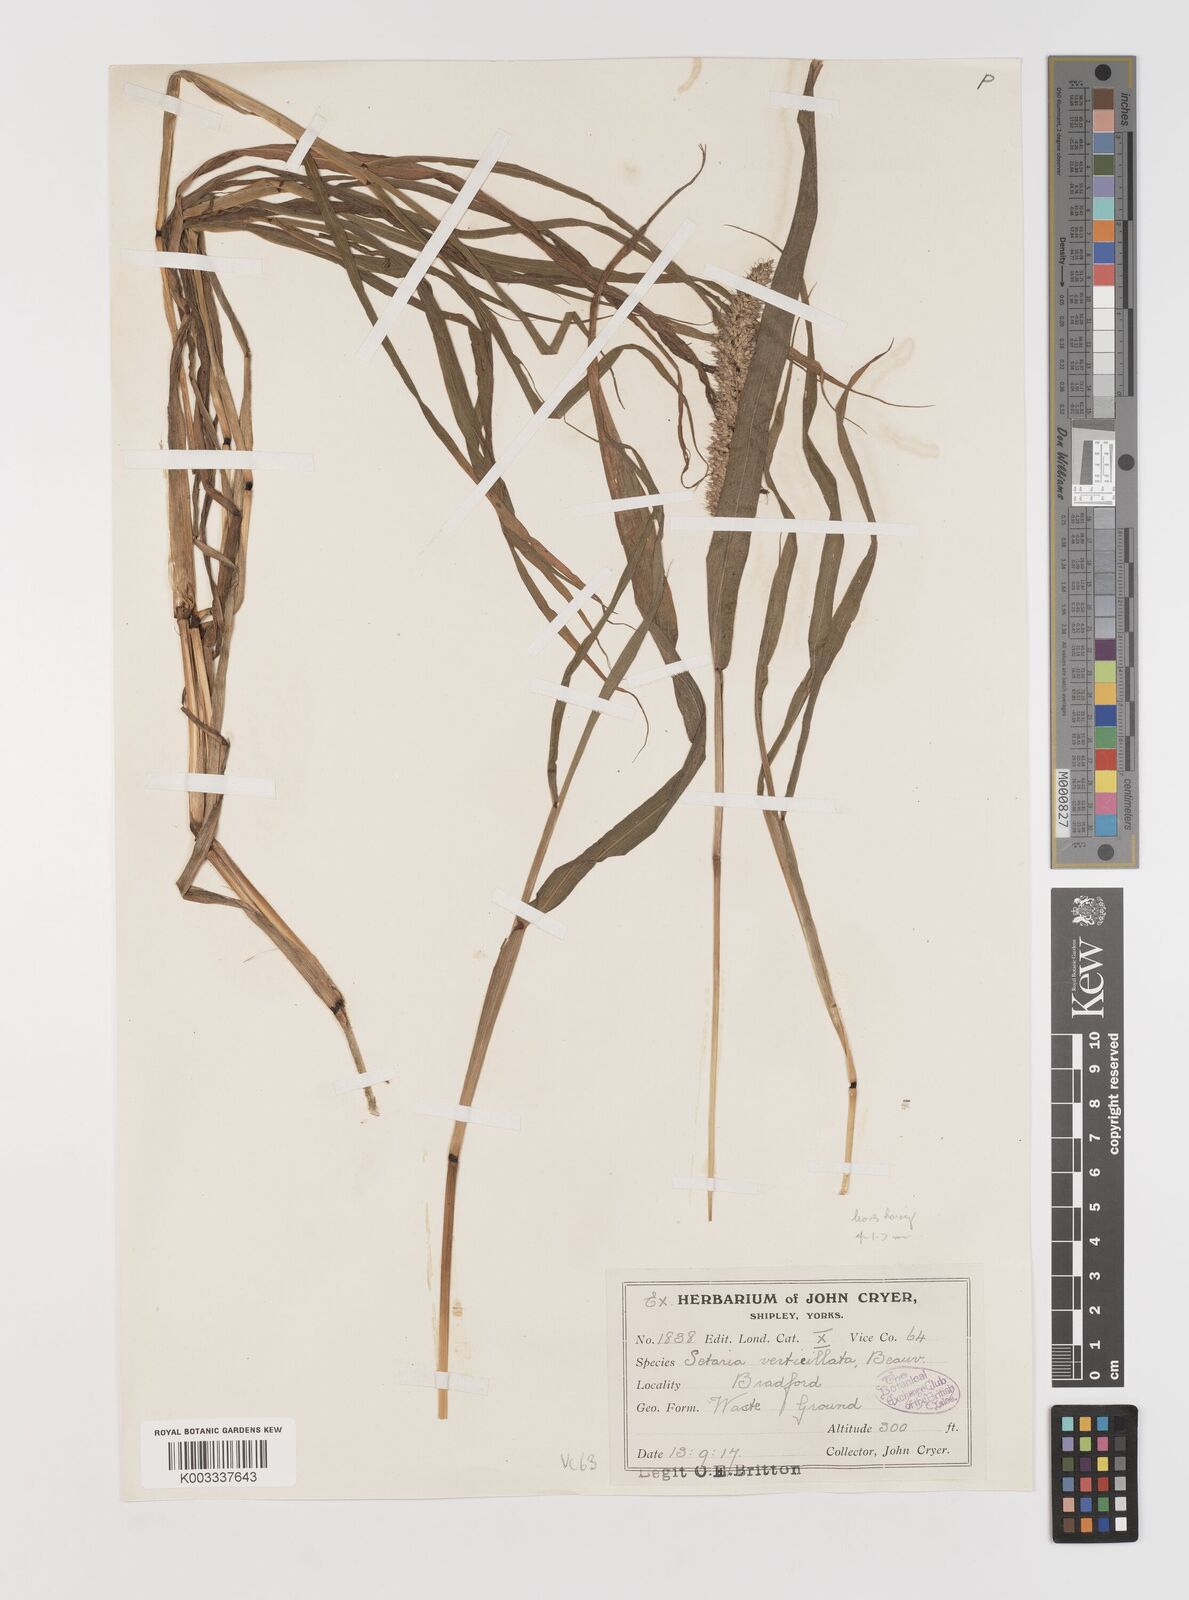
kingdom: Plantae
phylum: Tracheophyta
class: Liliopsida
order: Poales
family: Poaceae
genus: Setaria
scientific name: Setaria verticillata
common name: Hooked bristlegrass
